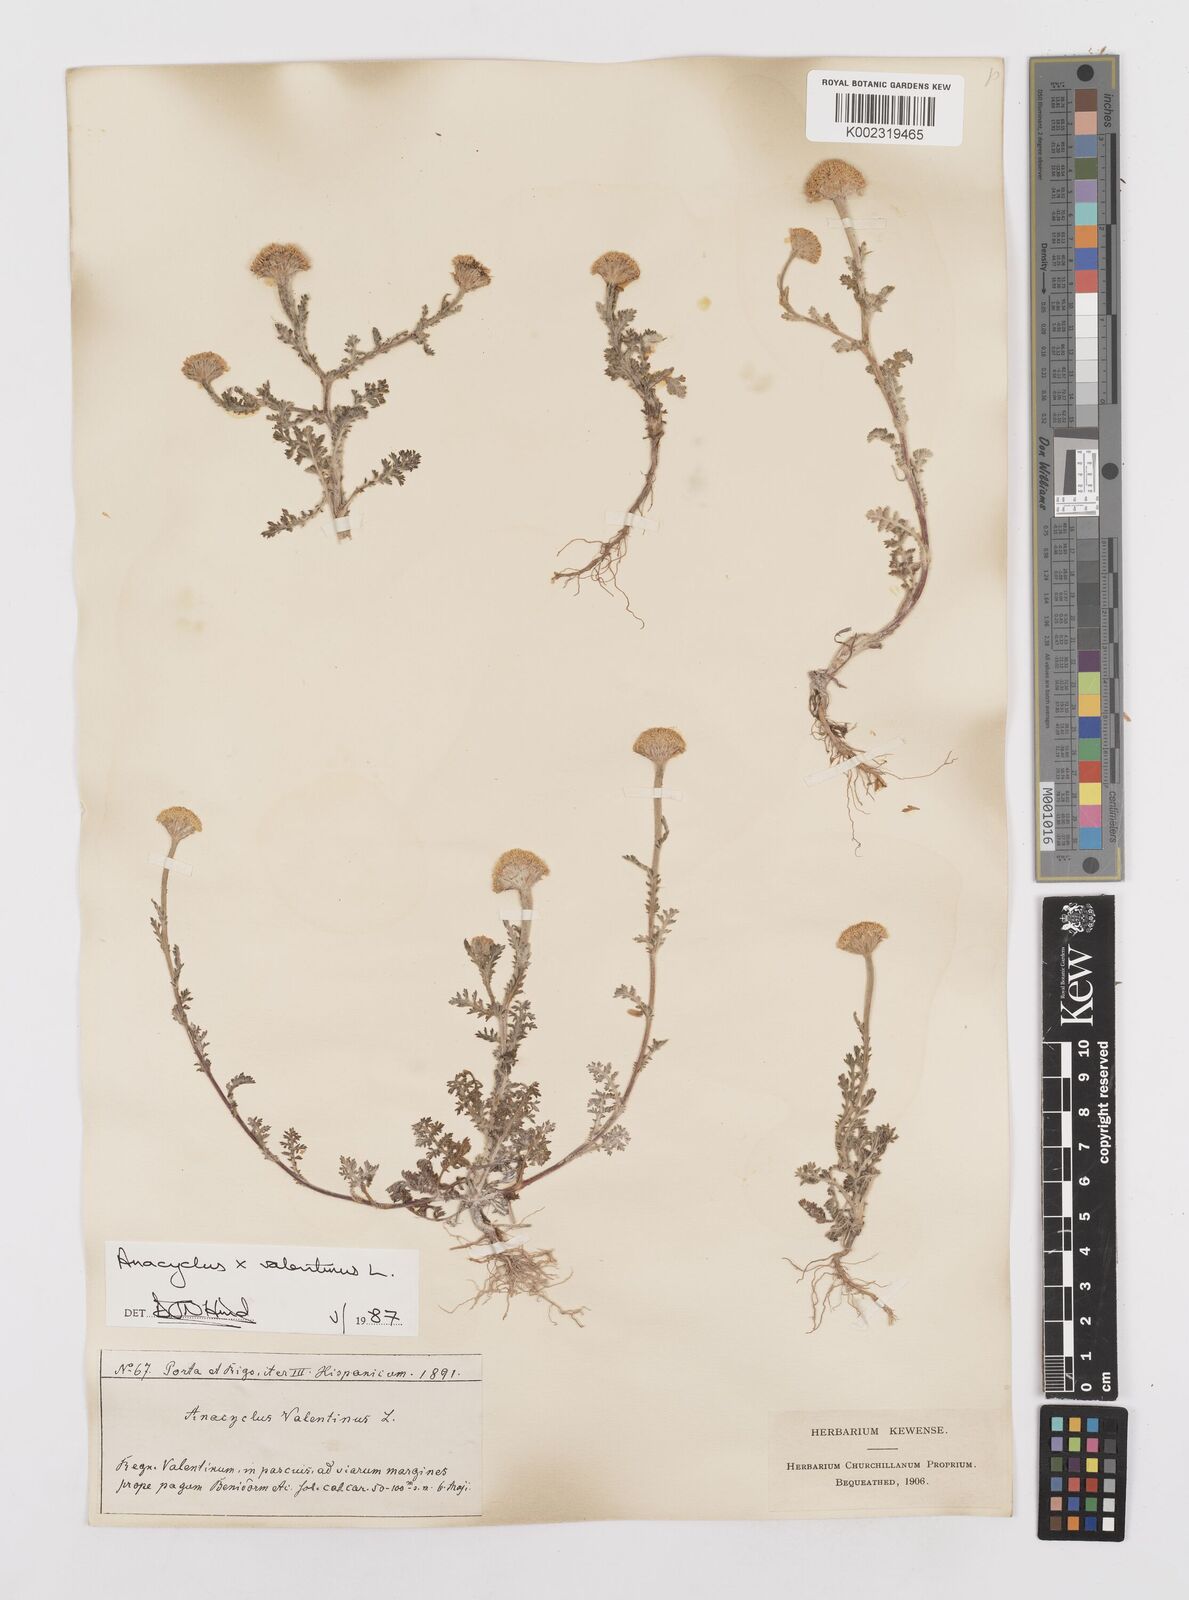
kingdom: Plantae
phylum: Tracheophyta
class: Magnoliopsida
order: Asterales
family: Asteraceae
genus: Anacyclus
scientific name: Anacyclus valentinus
